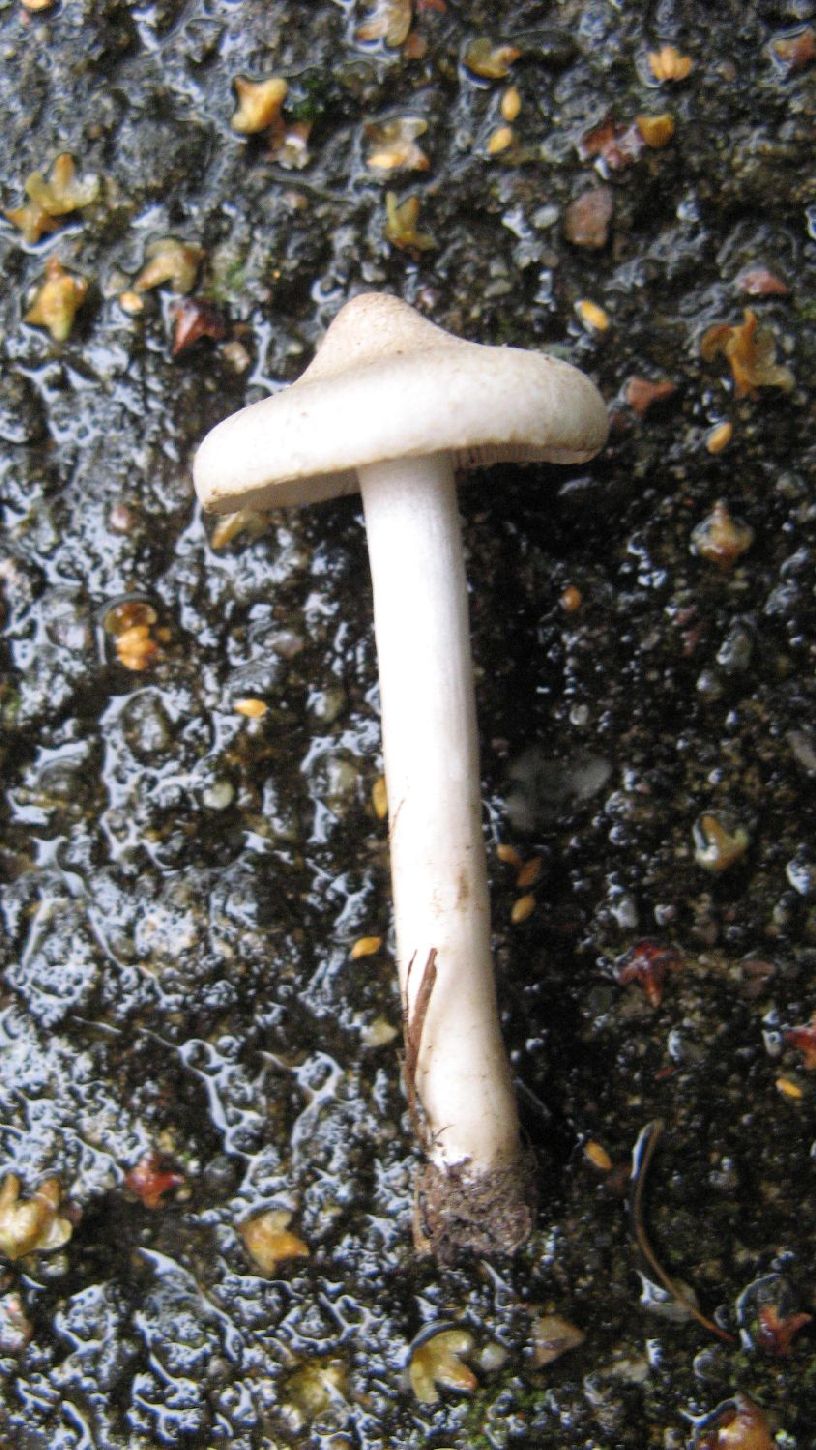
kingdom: Fungi
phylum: Basidiomycota
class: Agaricomycetes
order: Agaricales
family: Tricholomataceae
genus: Tricholoma
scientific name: Tricholoma argyraceum
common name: spids ridderhat
